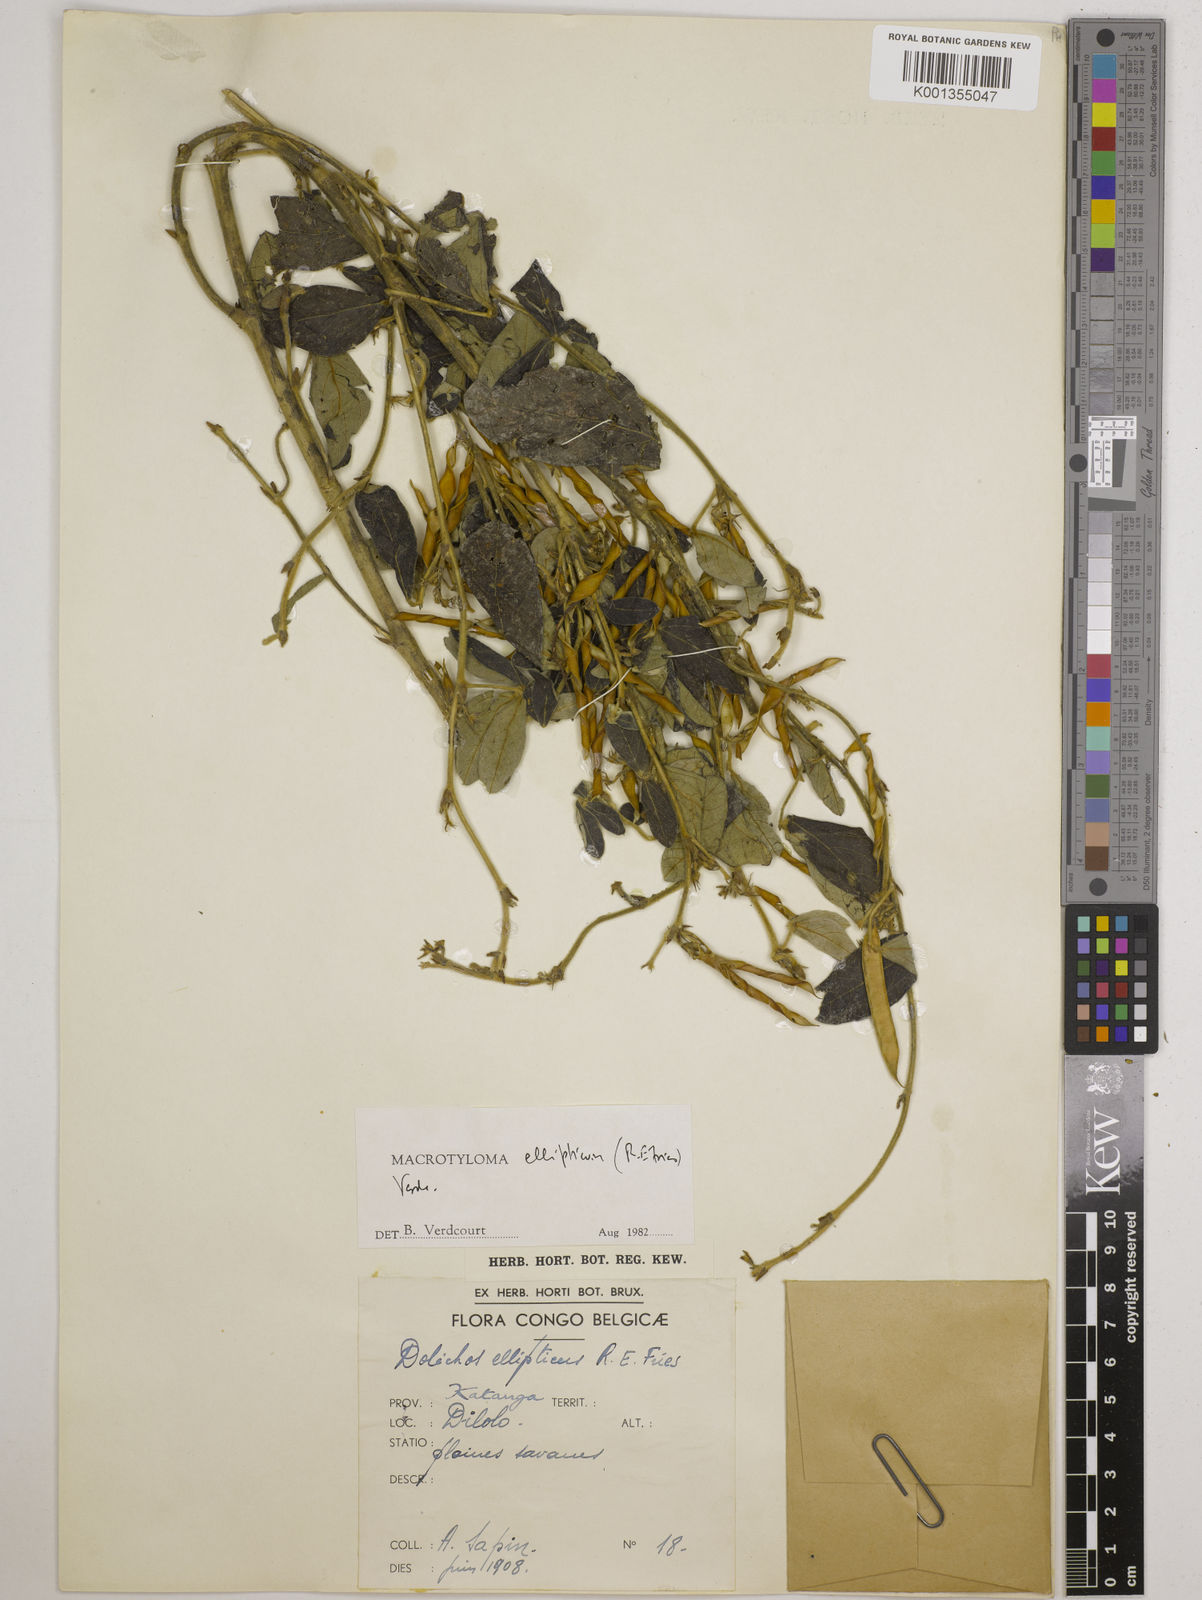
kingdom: Plantae
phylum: Tracheophyta
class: Magnoliopsida
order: Fabales
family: Fabaceae
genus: Macrotyloma
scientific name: Macrotyloma ellipticum
